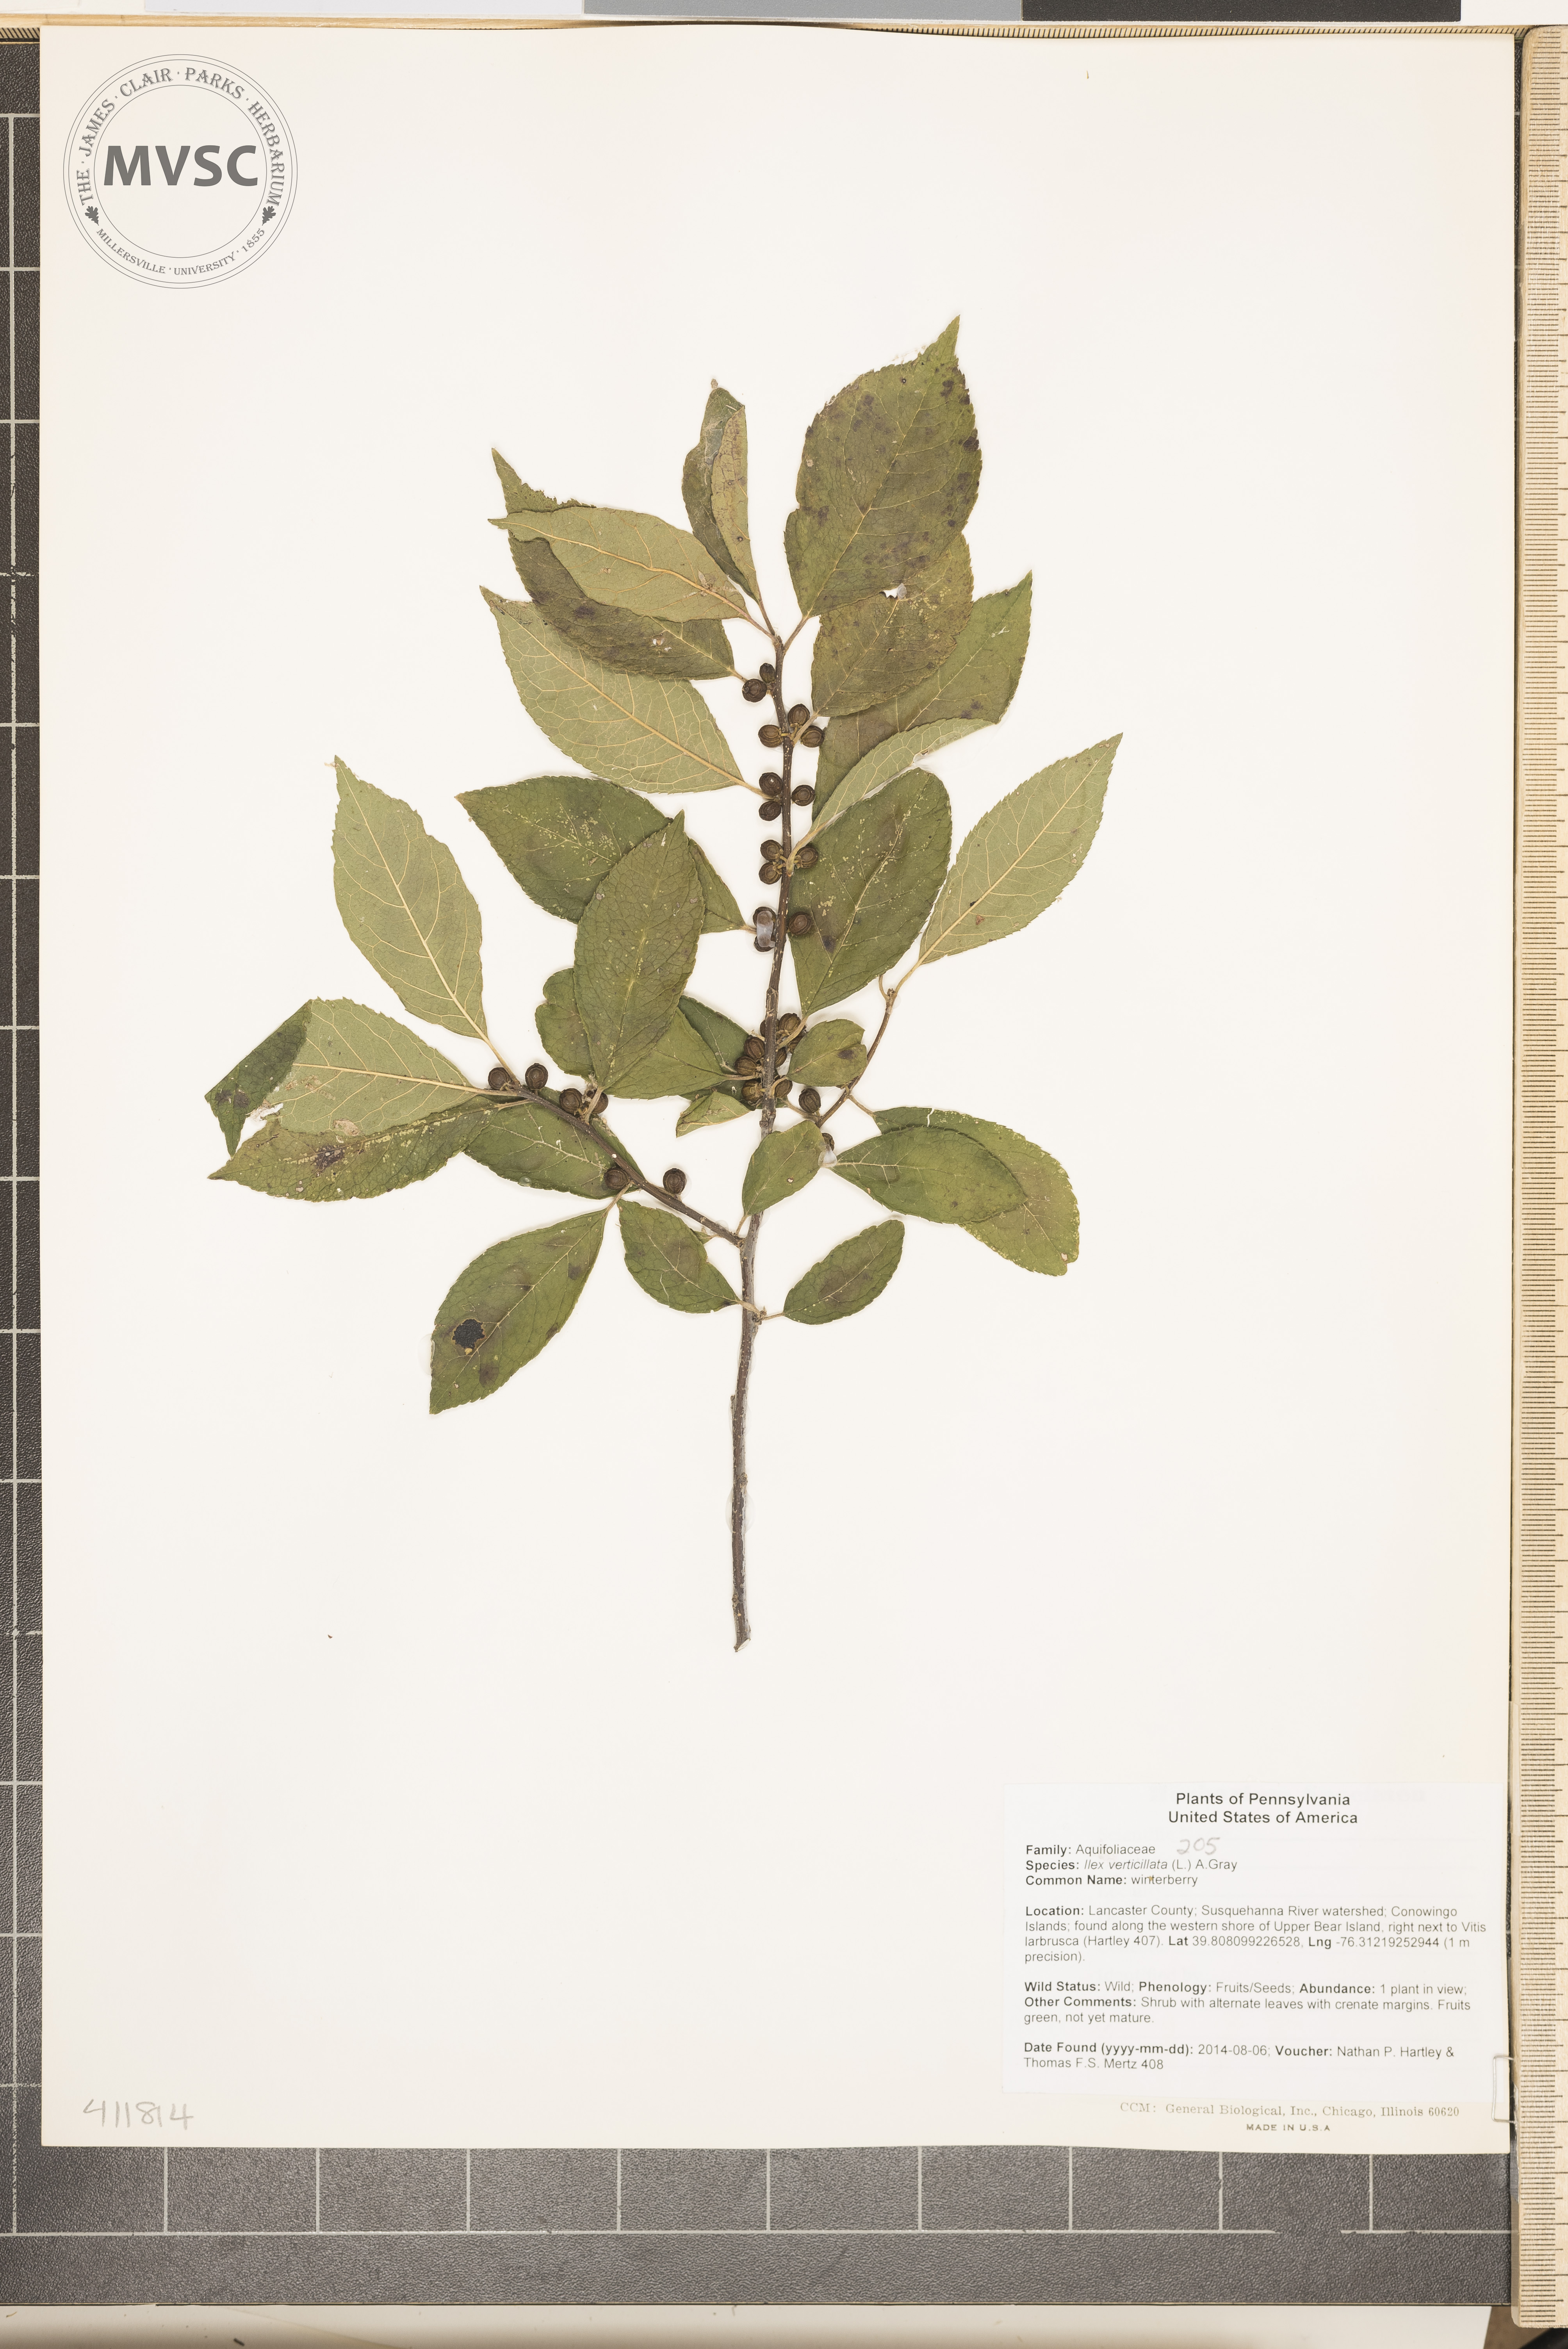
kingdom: Plantae
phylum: Tracheophyta
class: Magnoliopsida
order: Aquifoliales
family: Aquifoliaceae
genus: Ilex
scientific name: Ilex verticillata
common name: winterberry
